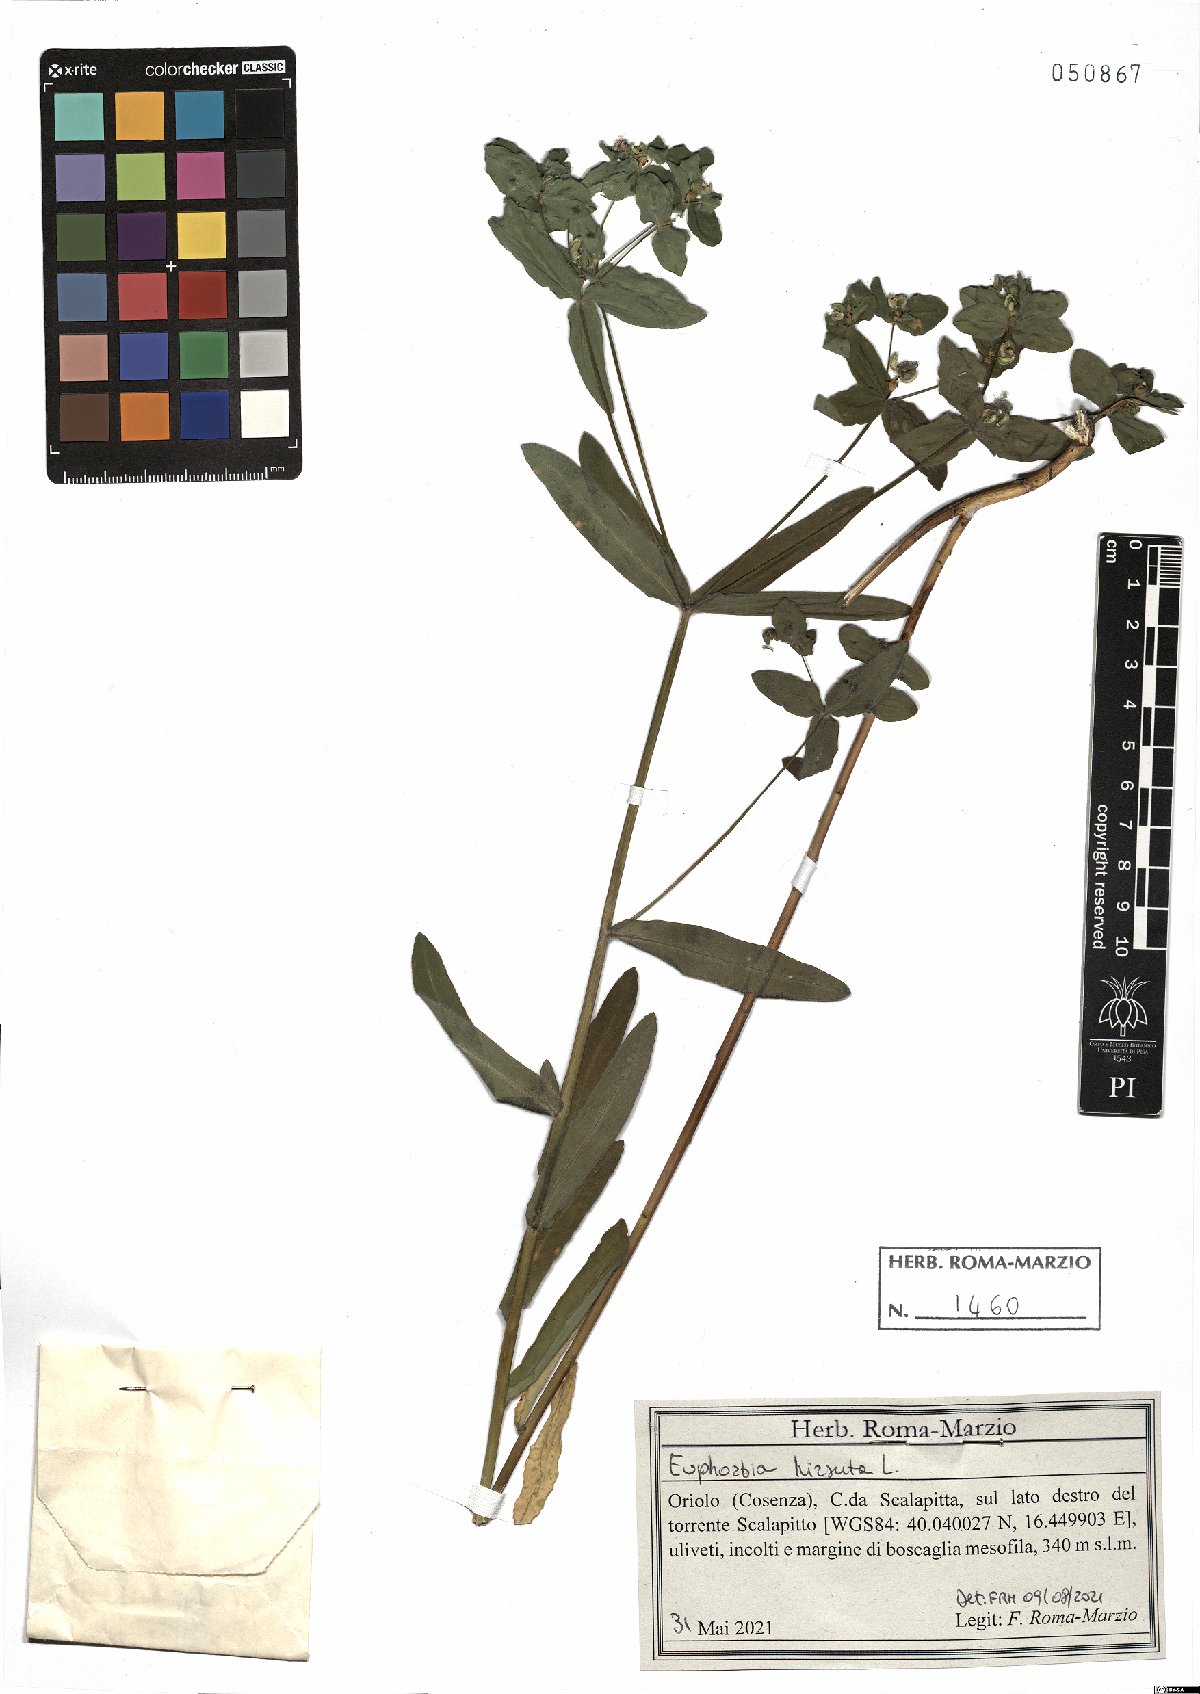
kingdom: Plantae
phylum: Tracheophyta
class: Magnoliopsida
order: Malpighiales
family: Euphorbiaceae
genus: Euphorbia
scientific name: Euphorbia hirsuta
